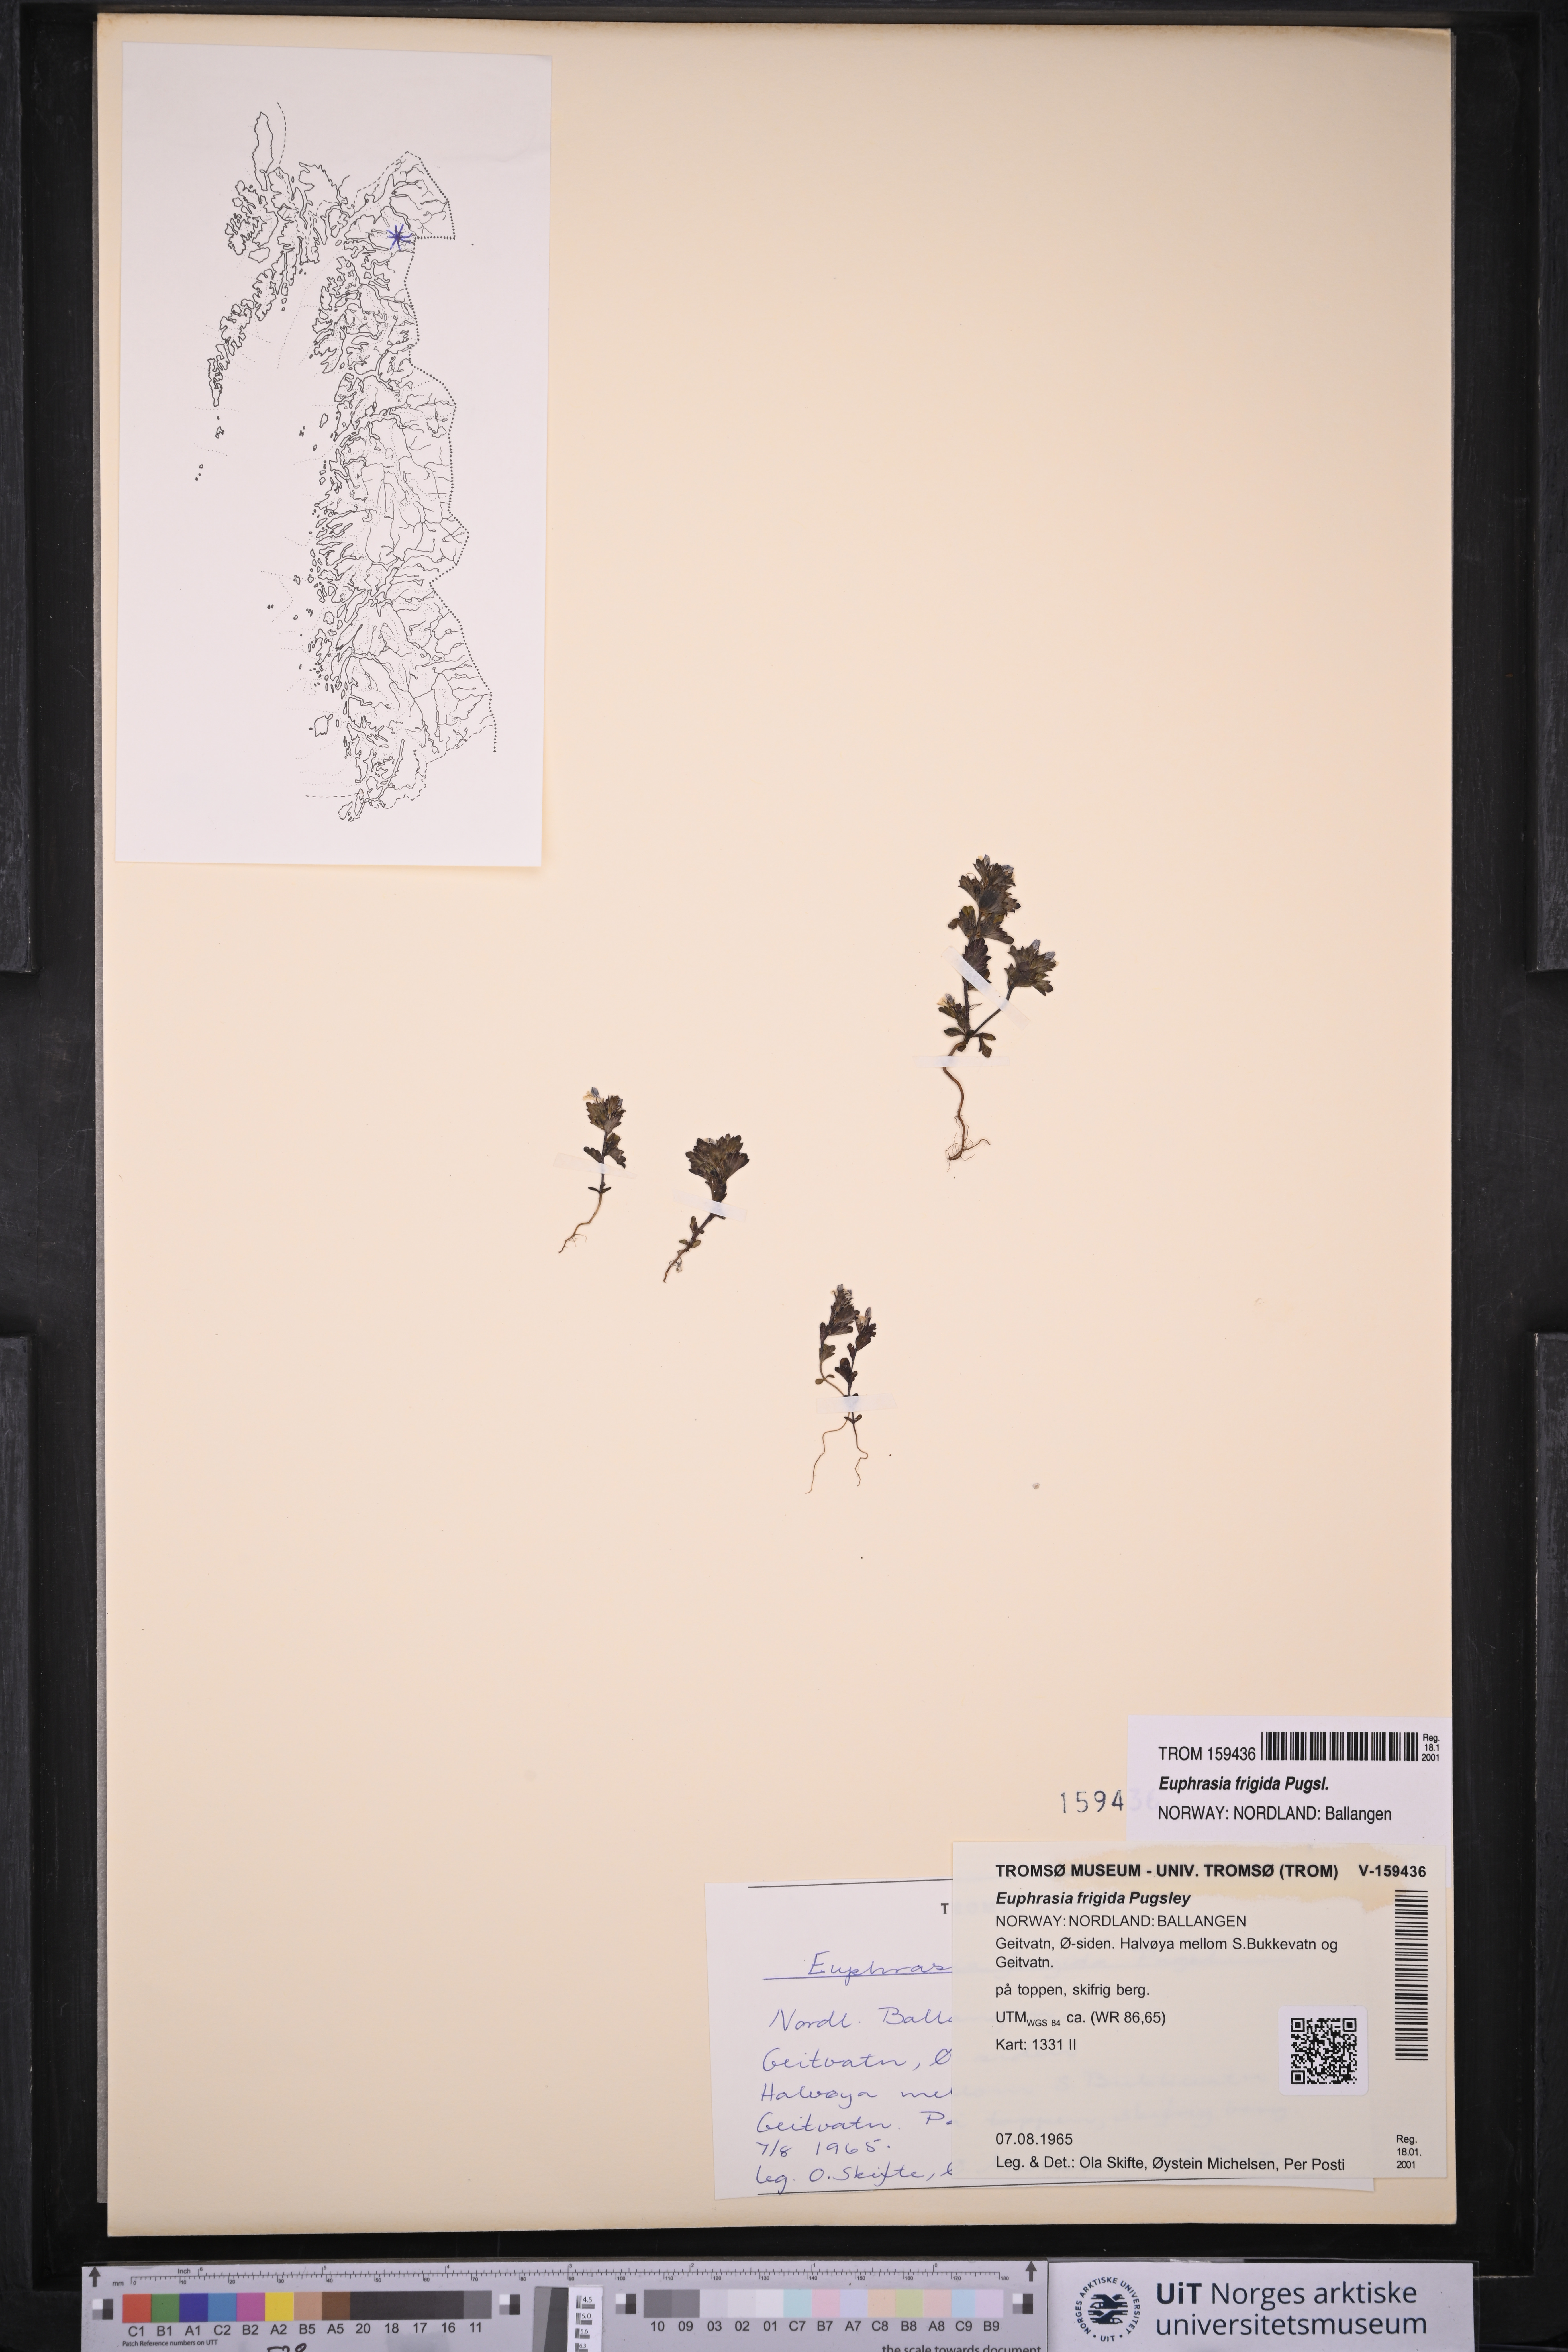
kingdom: Plantae
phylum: Tracheophyta
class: Magnoliopsida
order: Lamiales
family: Orobanchaceae
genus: Euphrasia
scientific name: Euphrasia frigida
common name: An eyebright
